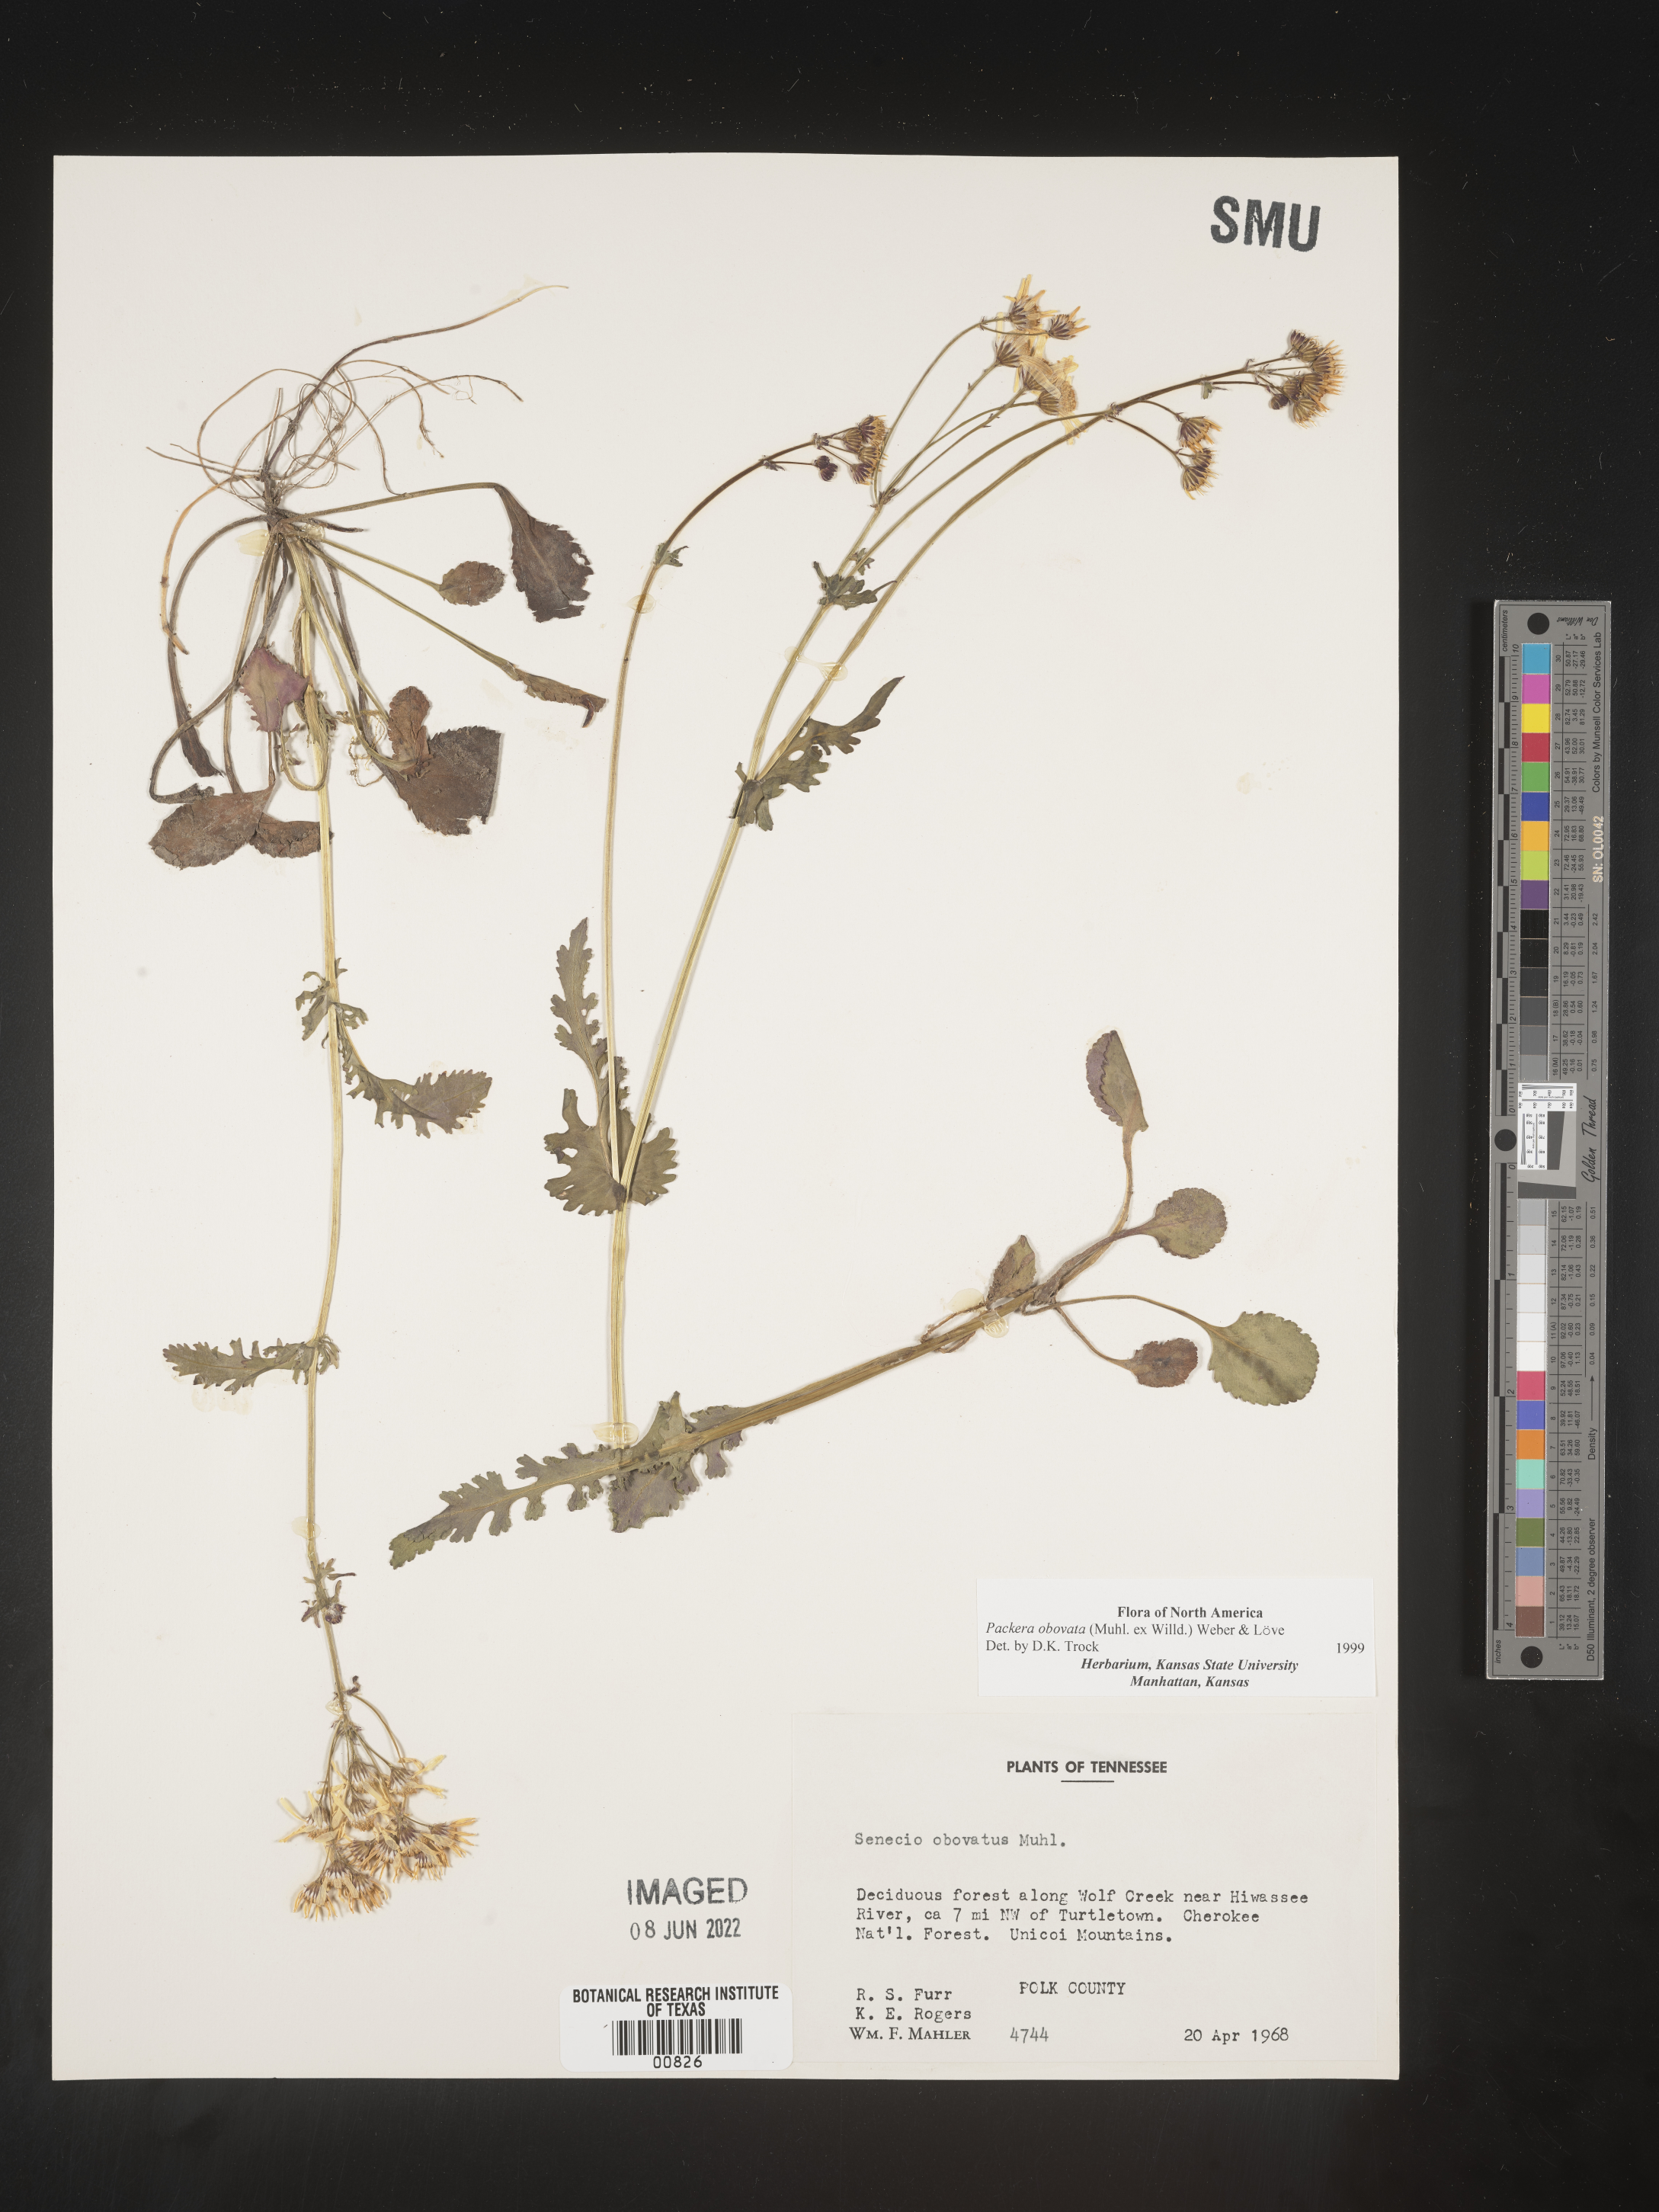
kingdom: Plantae
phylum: Tracheophyta
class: Magnoliopsida
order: Asterales
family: Asteraceae
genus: Packera
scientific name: Packera obovata
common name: Round-leaf ragwort
